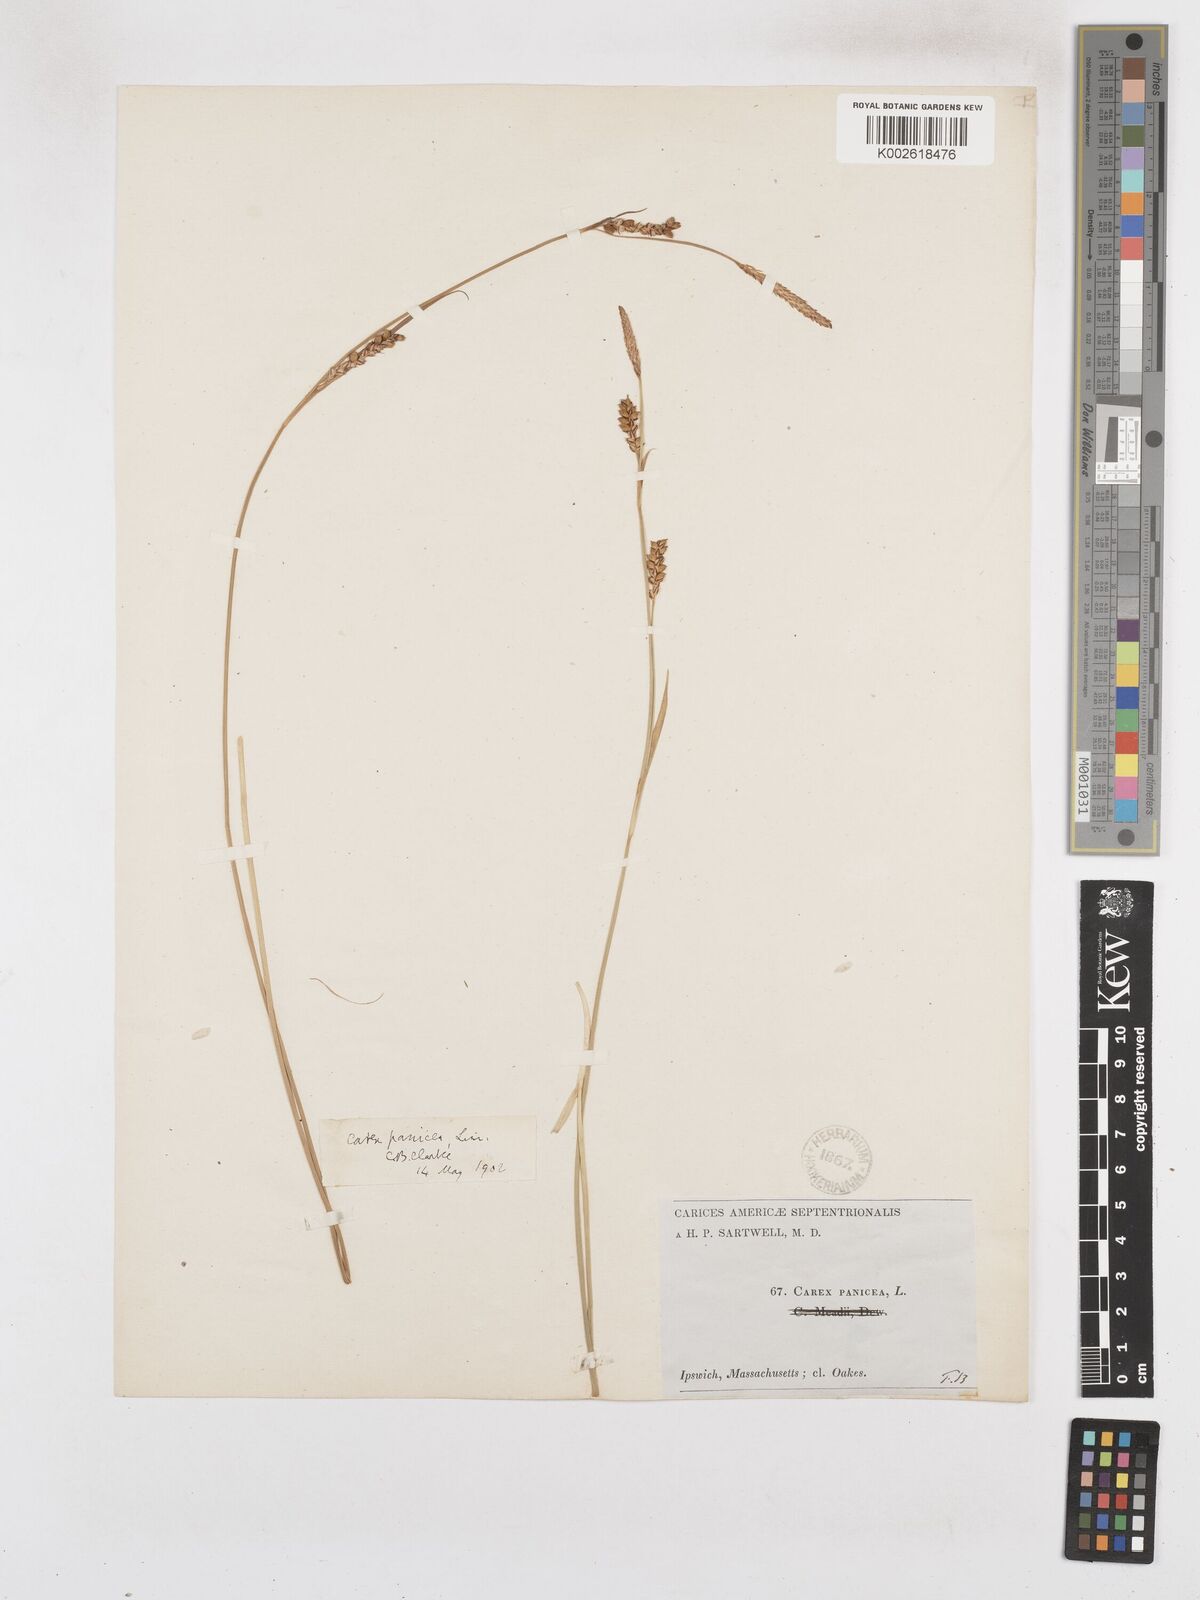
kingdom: Plantae
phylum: Tracheophyta
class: Liliopsida
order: Poales
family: Cyperaceae
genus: Carex
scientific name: Carex panicea
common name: Carnation sedge
